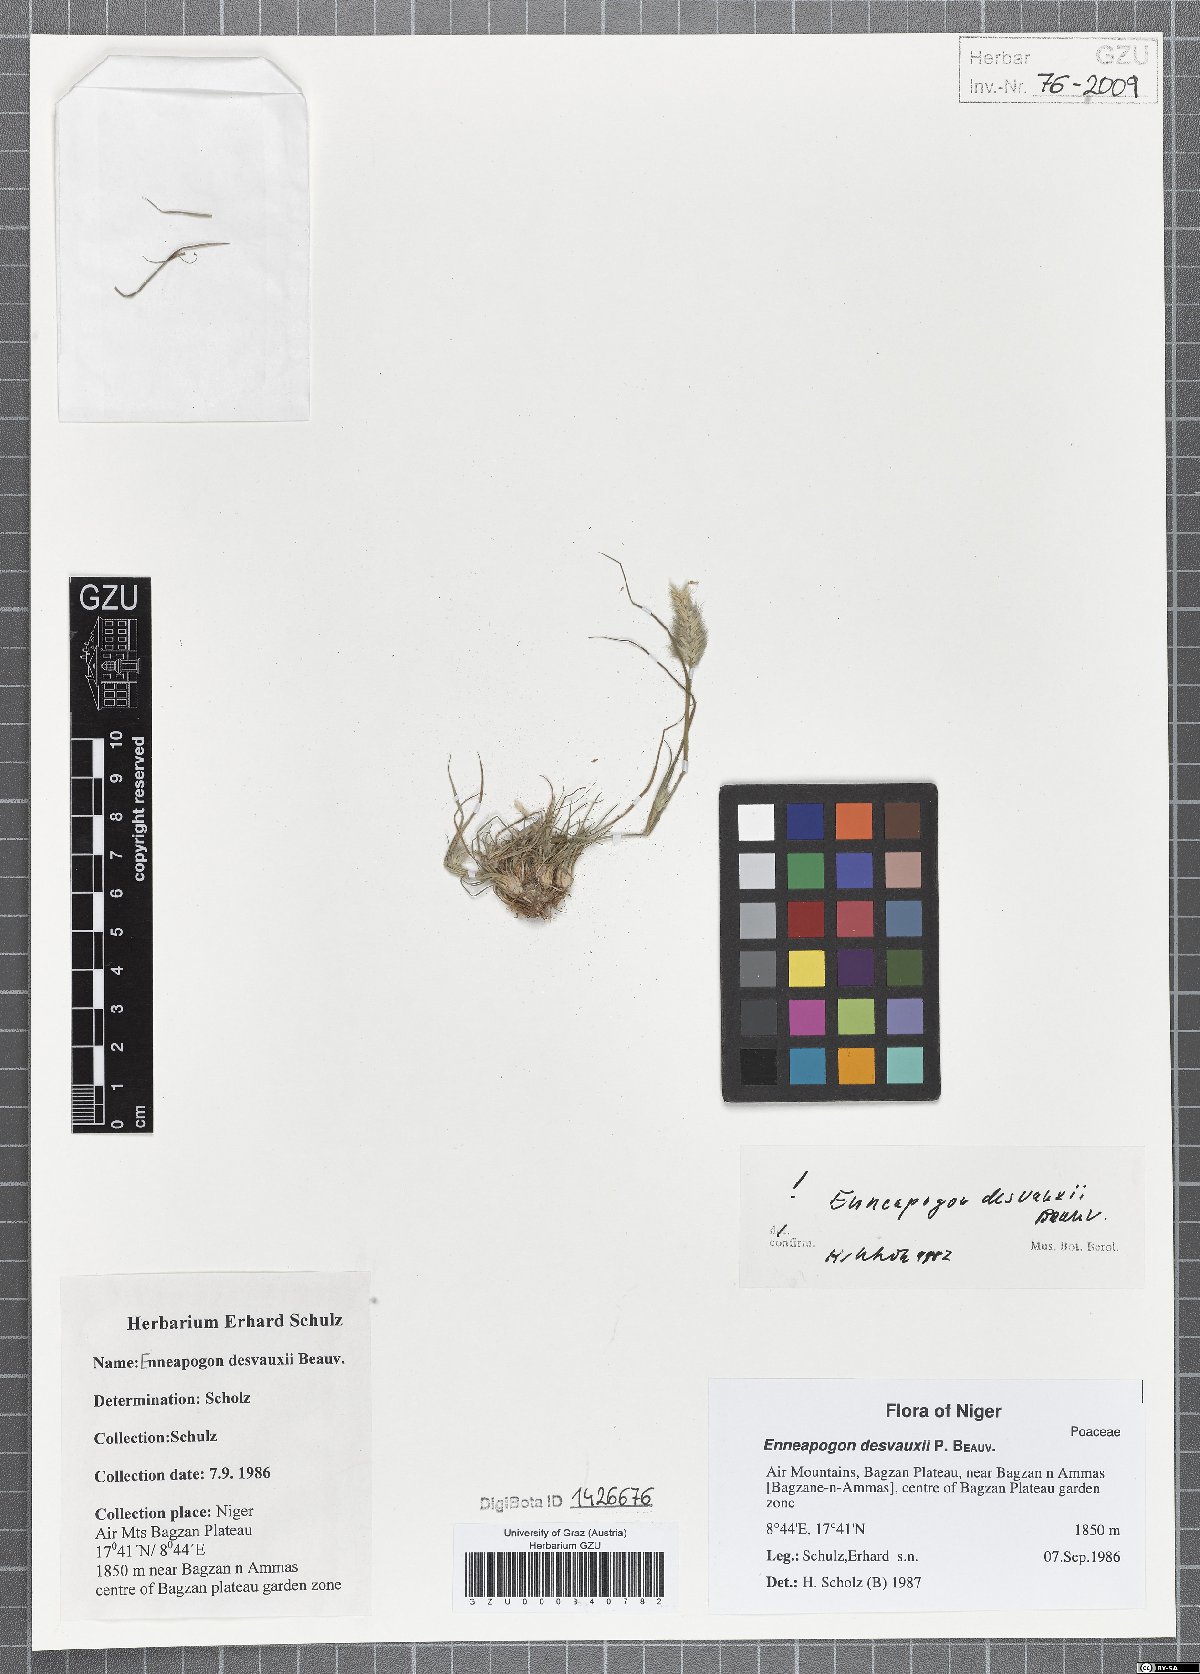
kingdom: Plantae
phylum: Tracheophyta
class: Liliopsida
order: Poales
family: Poaceae
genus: Enneapogon
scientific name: Enneapogon desvauxii
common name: Feather pappus grass
